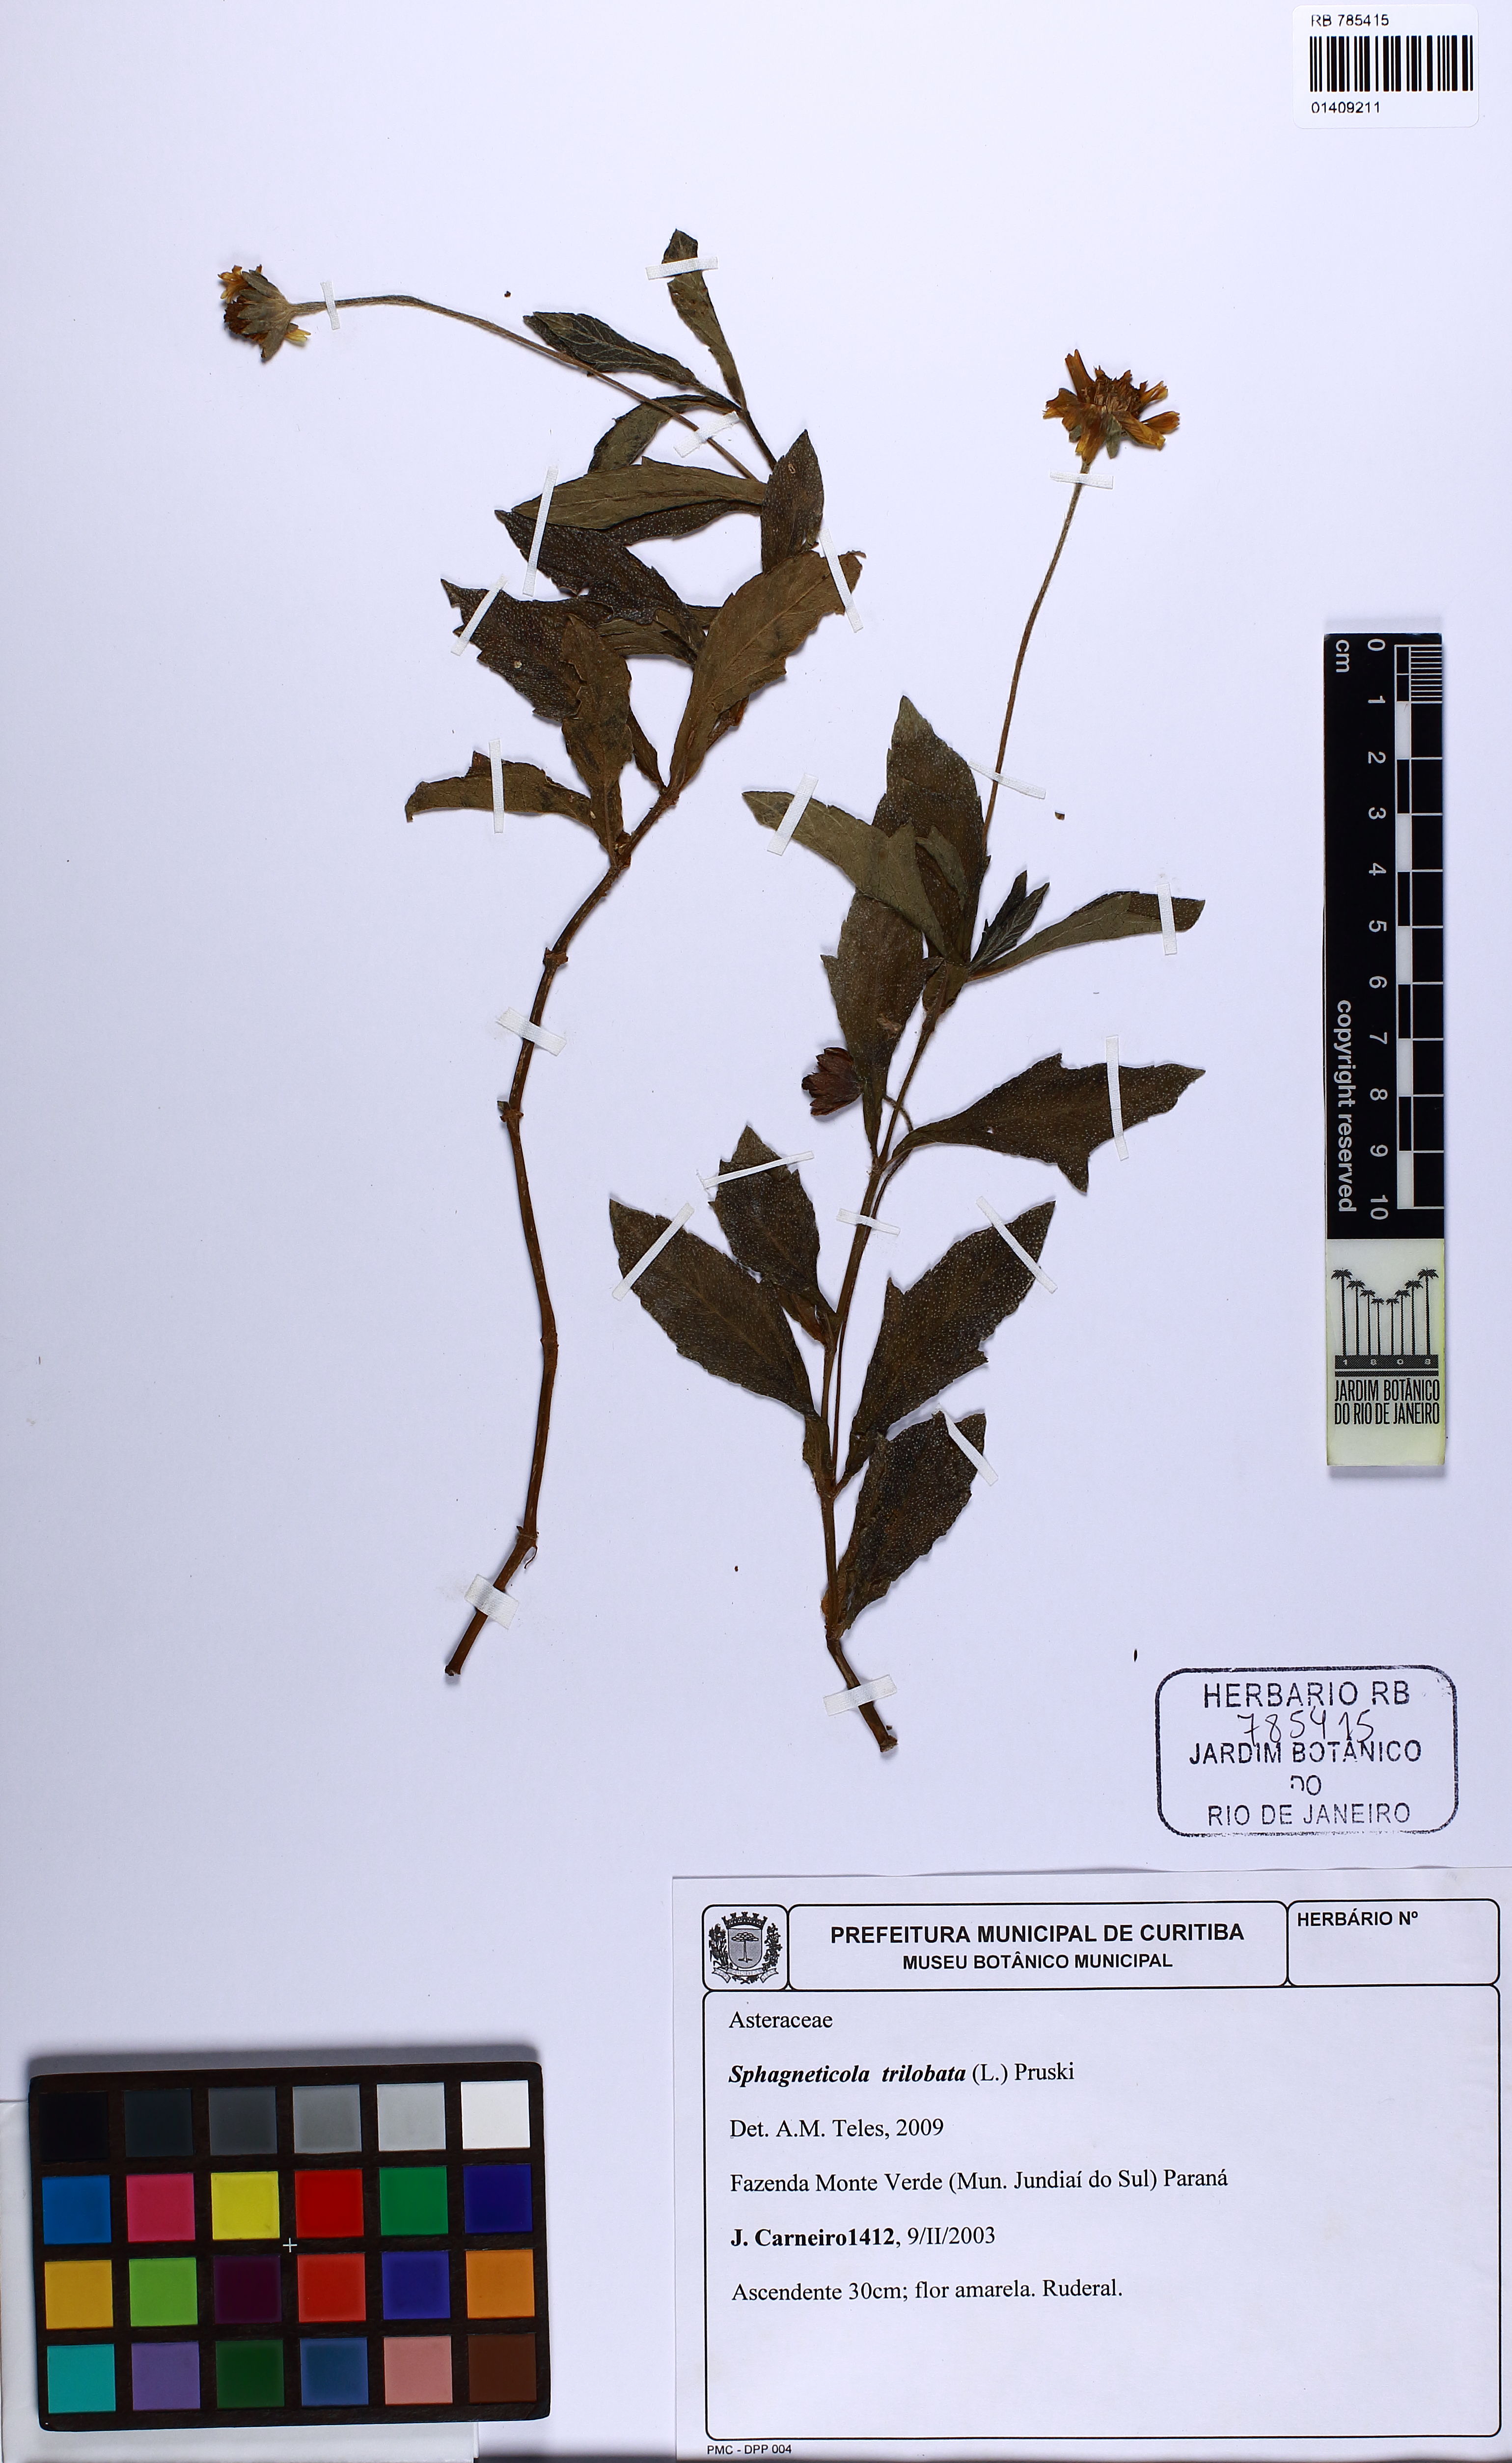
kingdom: Plantae
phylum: Tracheophyta
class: Magnoliopsida
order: Asterales
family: Asteraceae
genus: Sphagneticola
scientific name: Sphagneticola trilobata
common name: Bay biscayne creeping-oxeye
